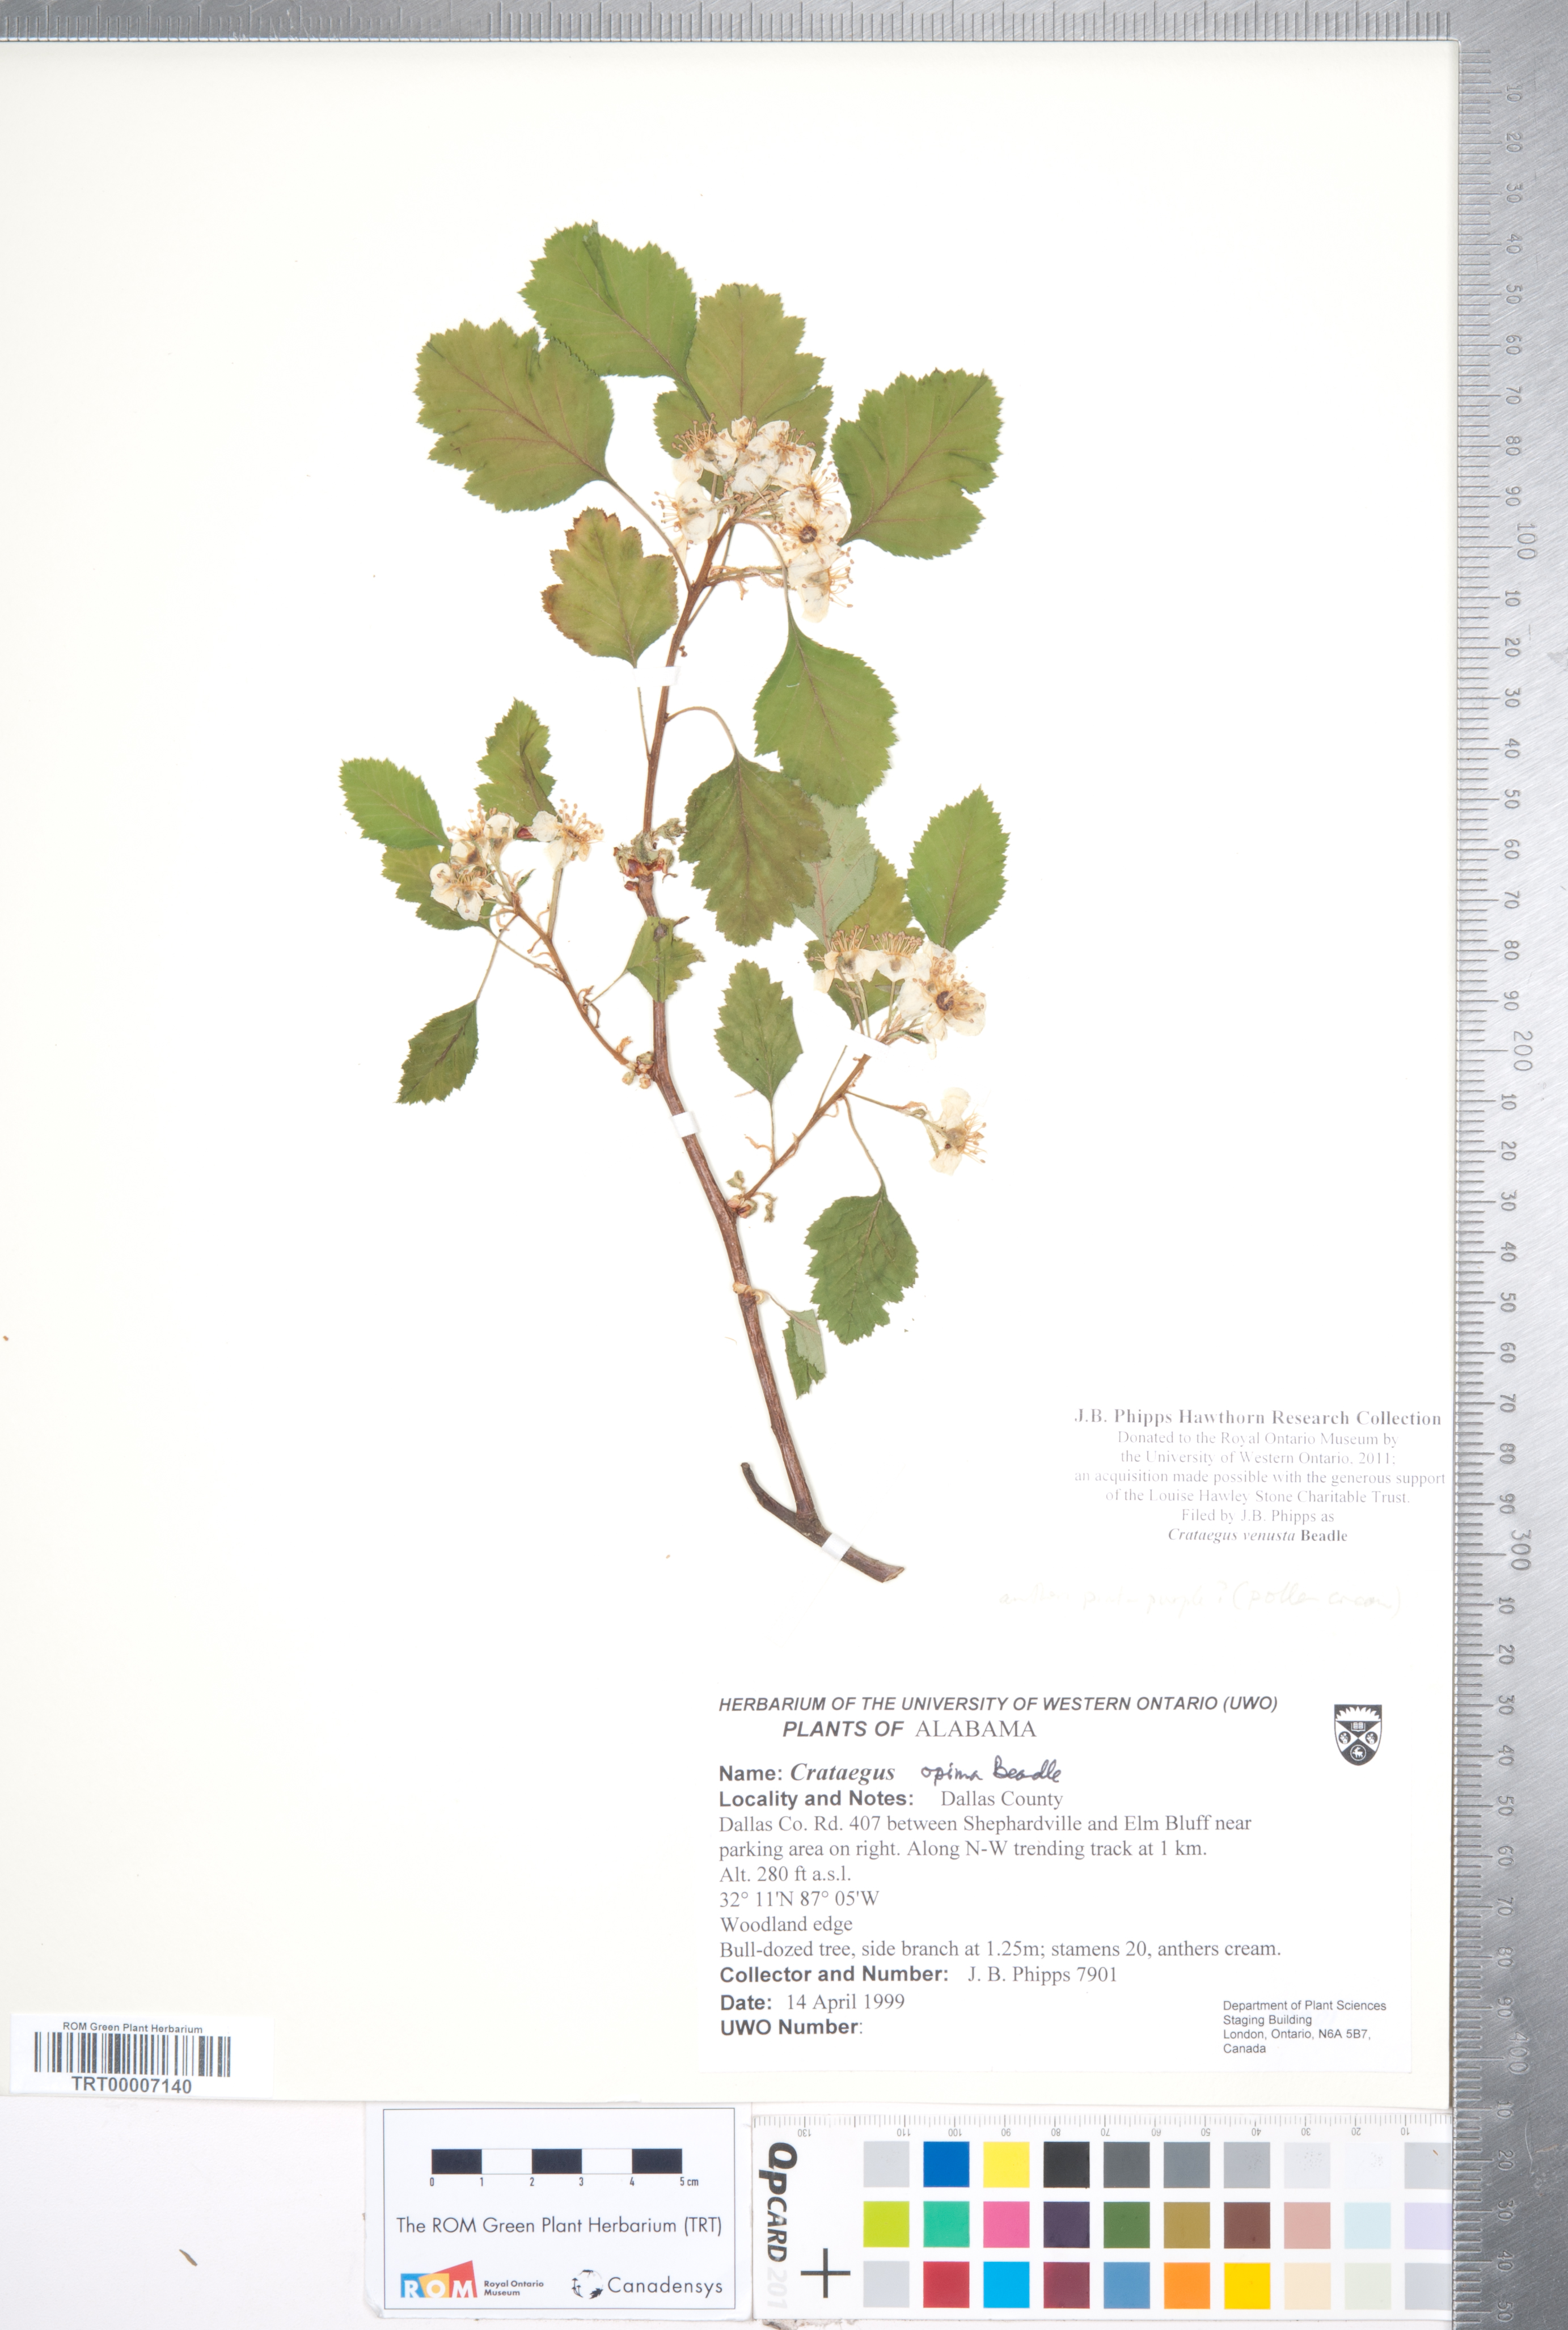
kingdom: Plantae
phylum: Tracheophyta
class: Magnoliopsida
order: Rosales
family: Rosaceae
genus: Crataegus
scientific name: Crataegus venusta
